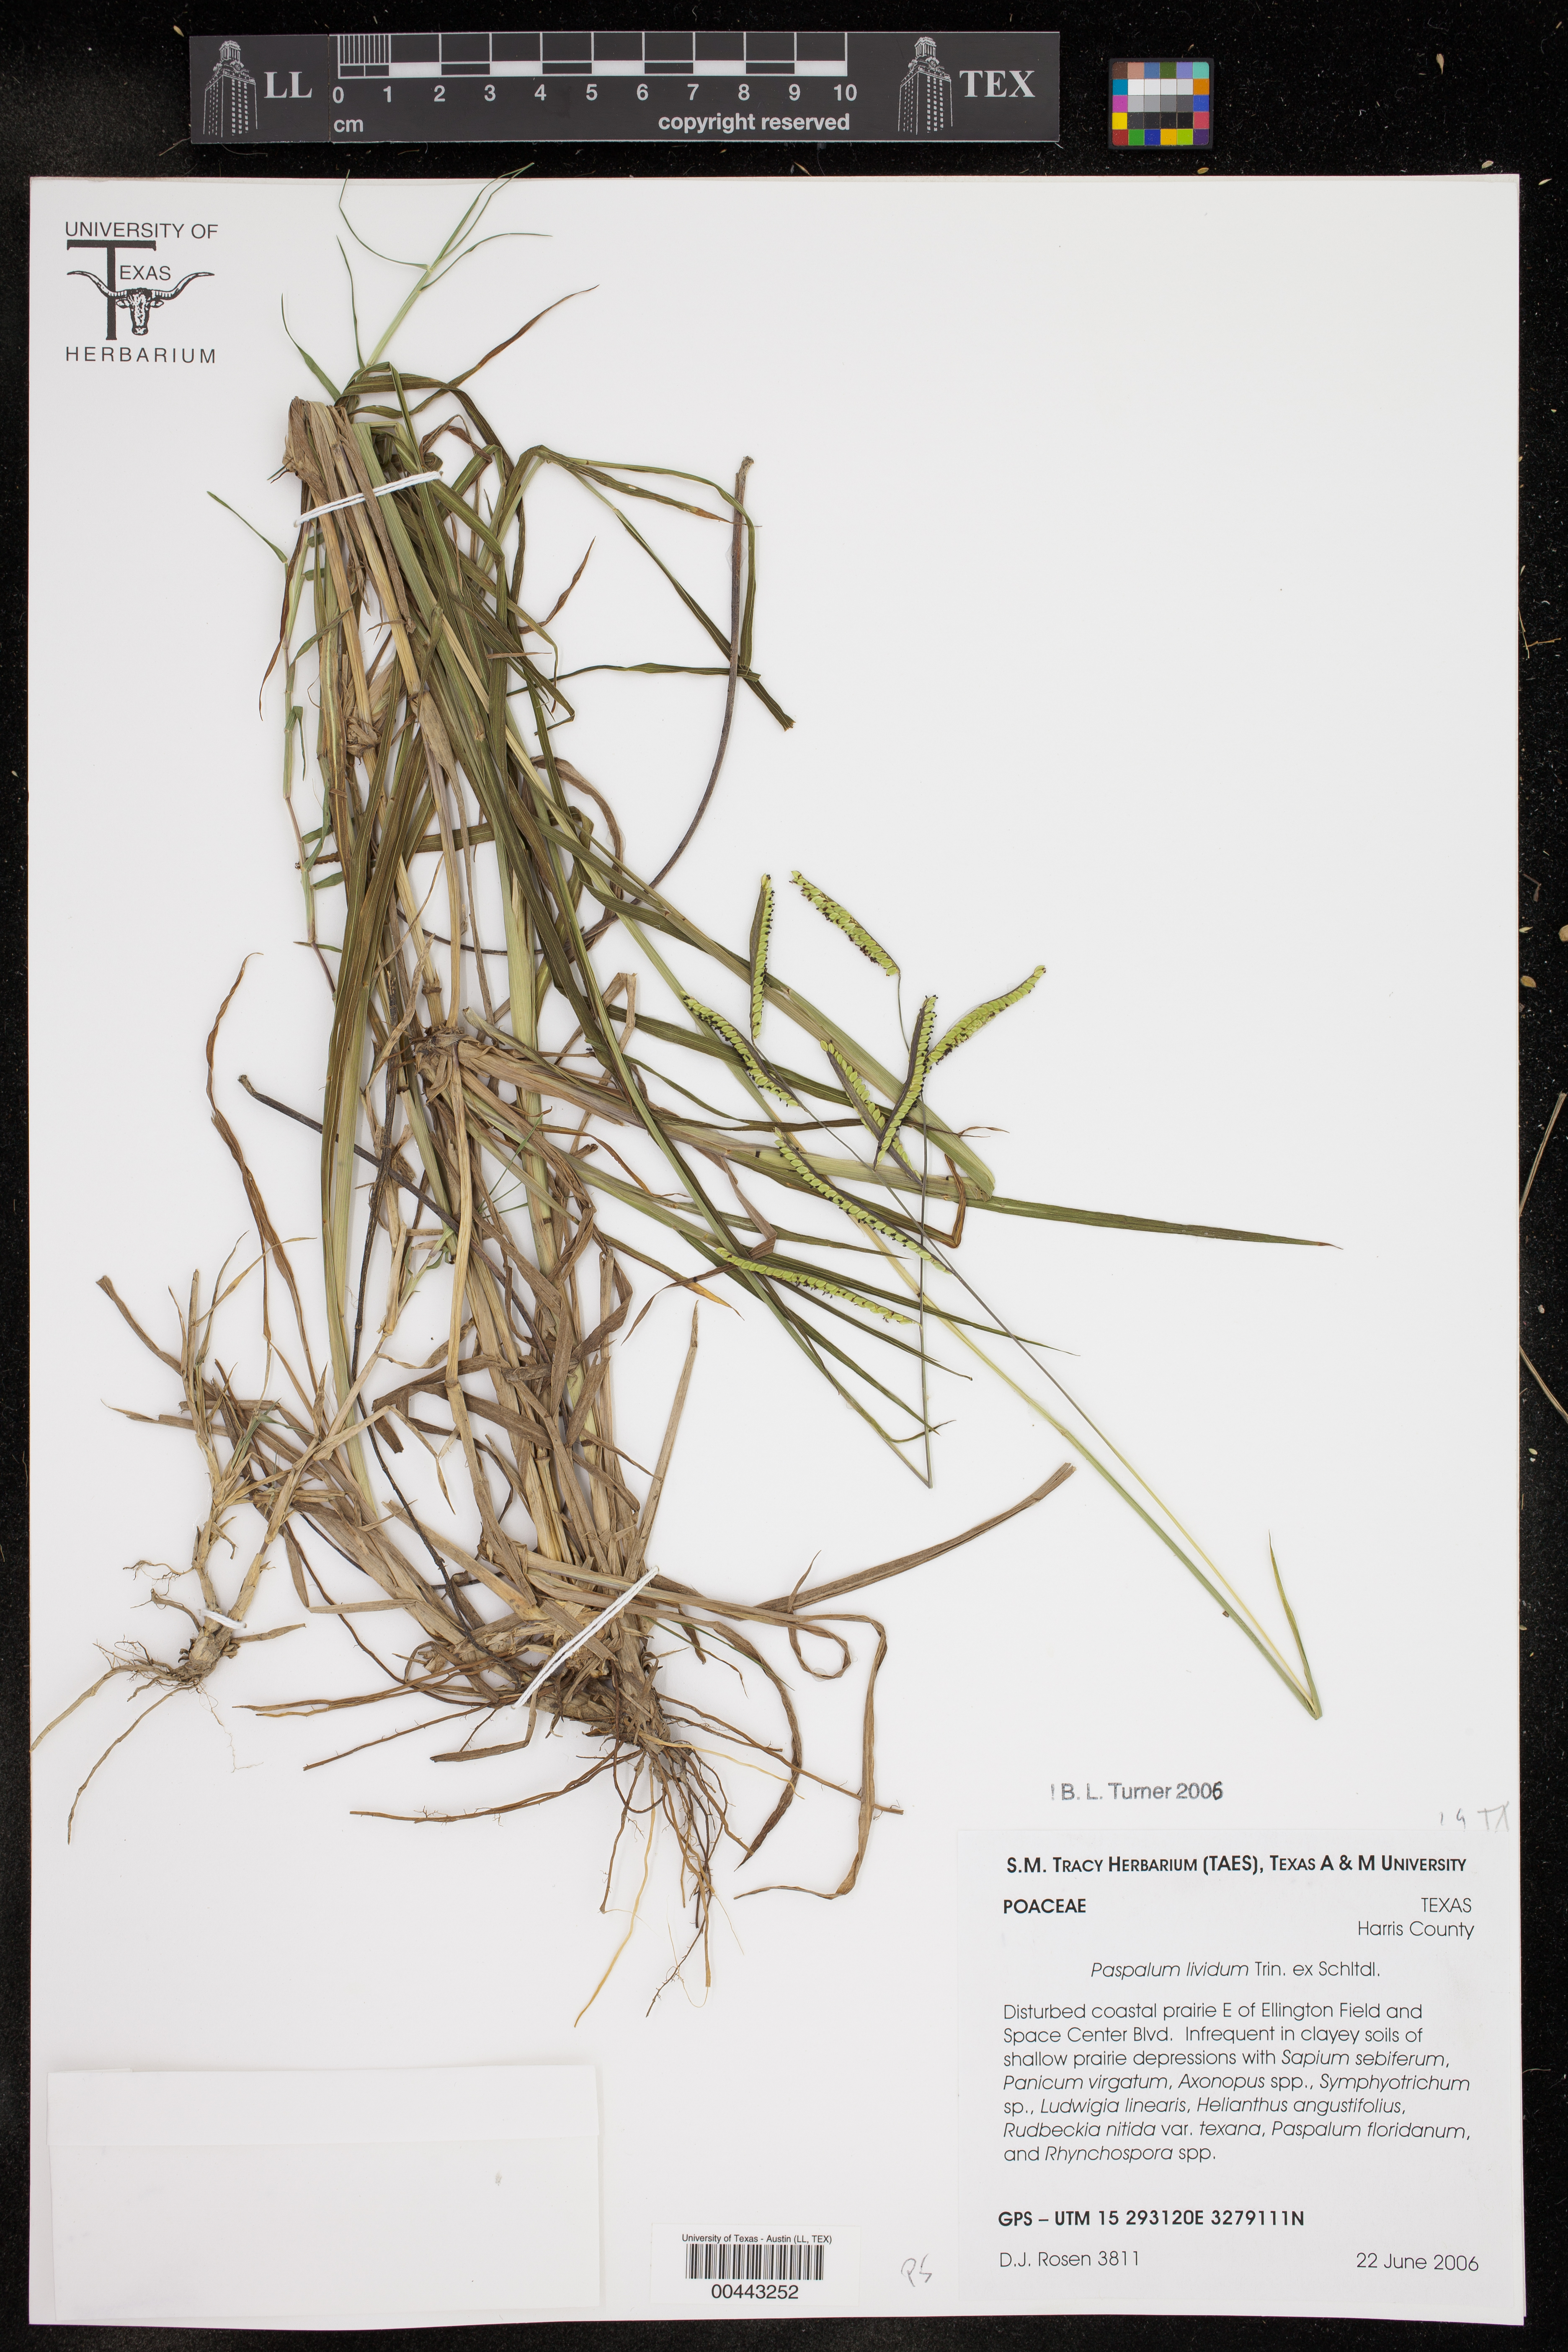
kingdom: Plantae
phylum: Tracheophyta
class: Liliopsida
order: Poales
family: Poaceae
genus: Paspalum
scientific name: Paspalum denticulatum
